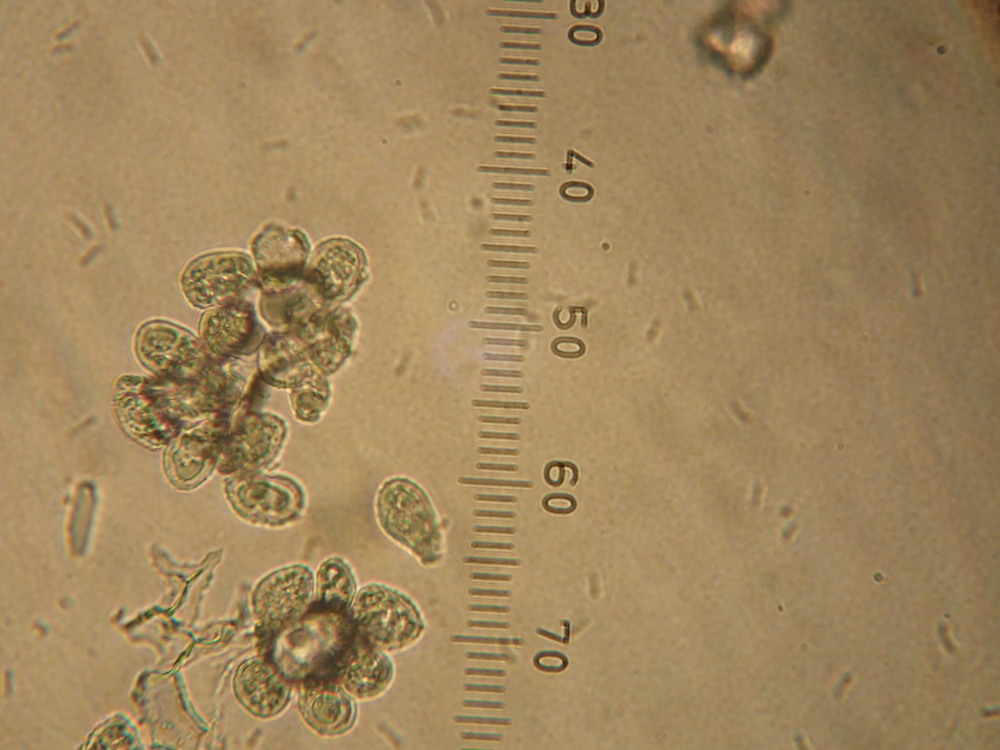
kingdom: Fungi
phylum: Ascomycota
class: Leotiomycetes
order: Helotiales
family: Erysiphaceae
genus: Podosphaera
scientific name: Podosphaera tridactyla
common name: Plum mildew
